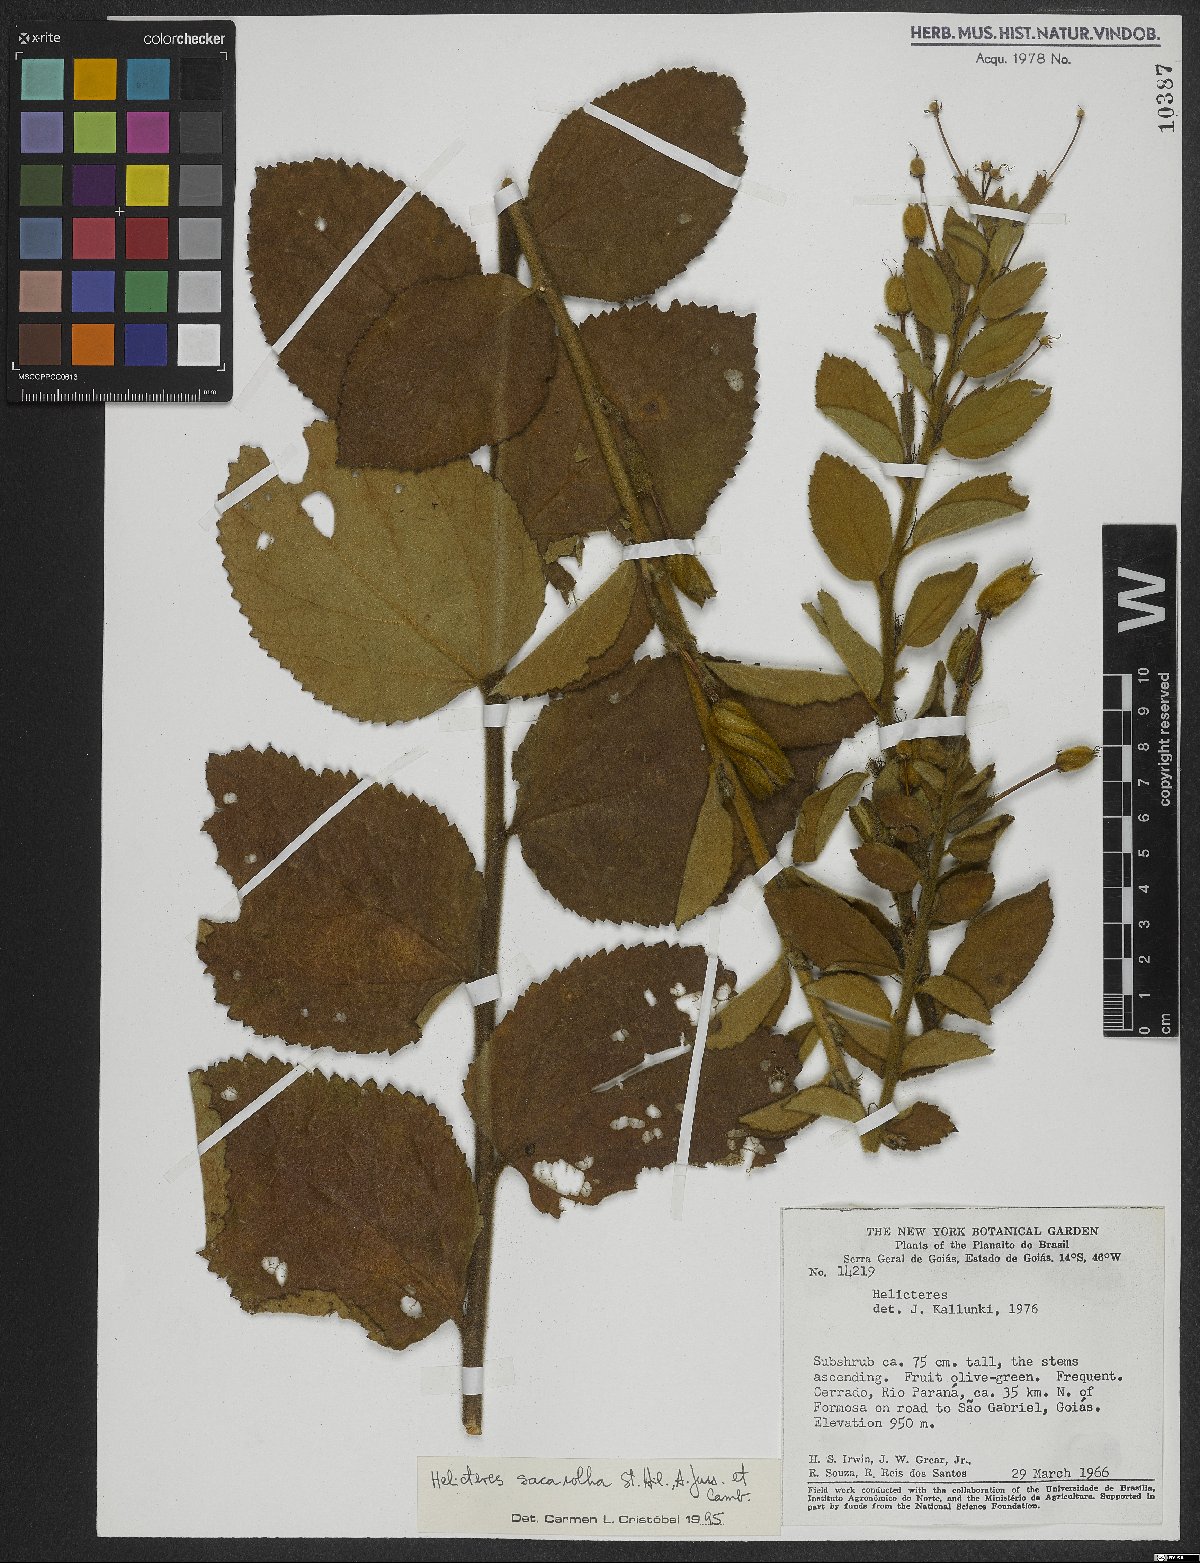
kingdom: Plantae
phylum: Tracheophyta
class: Magnoliopsida
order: Malvales
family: Malvaceae
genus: Helicteres
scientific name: Helicteres sacarolha
